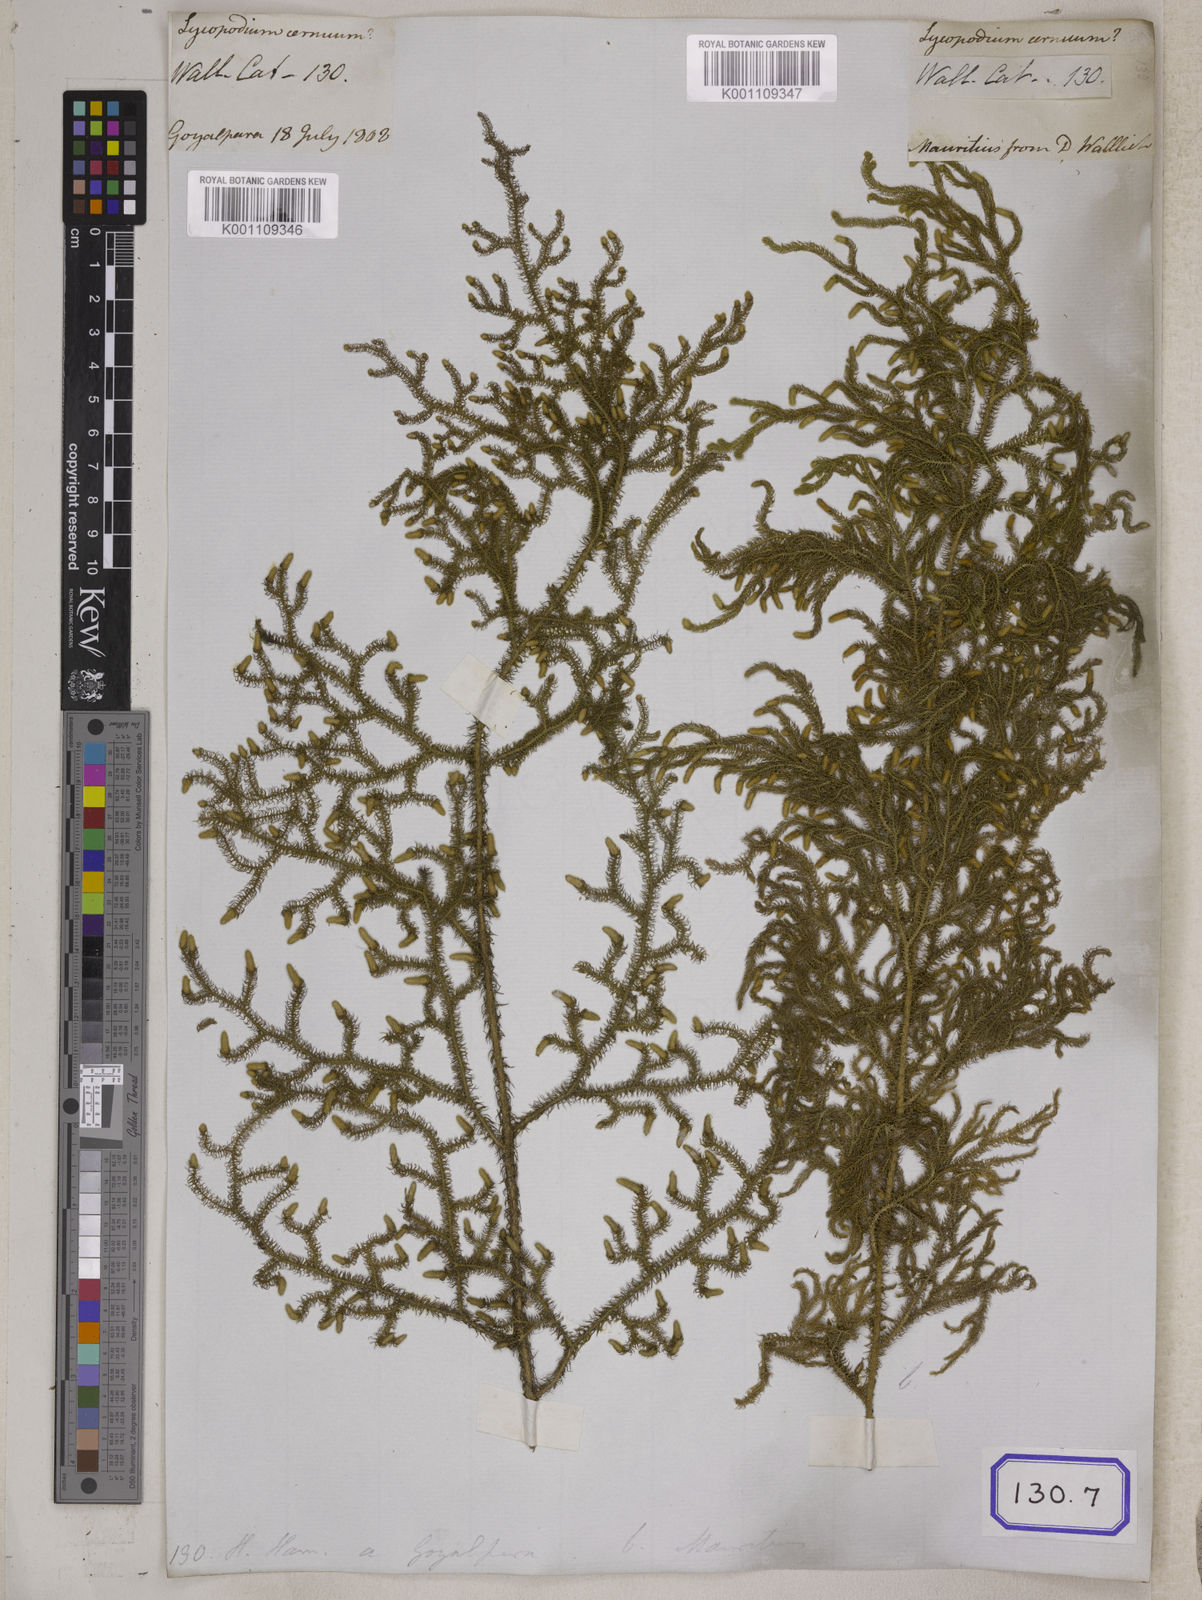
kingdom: Plantae
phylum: Tracheophyta
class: Lycopodiopsida
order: Lycopodiales
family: Lycopodiaceae
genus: Palhinhaea
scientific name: Palhinhaea cernua
